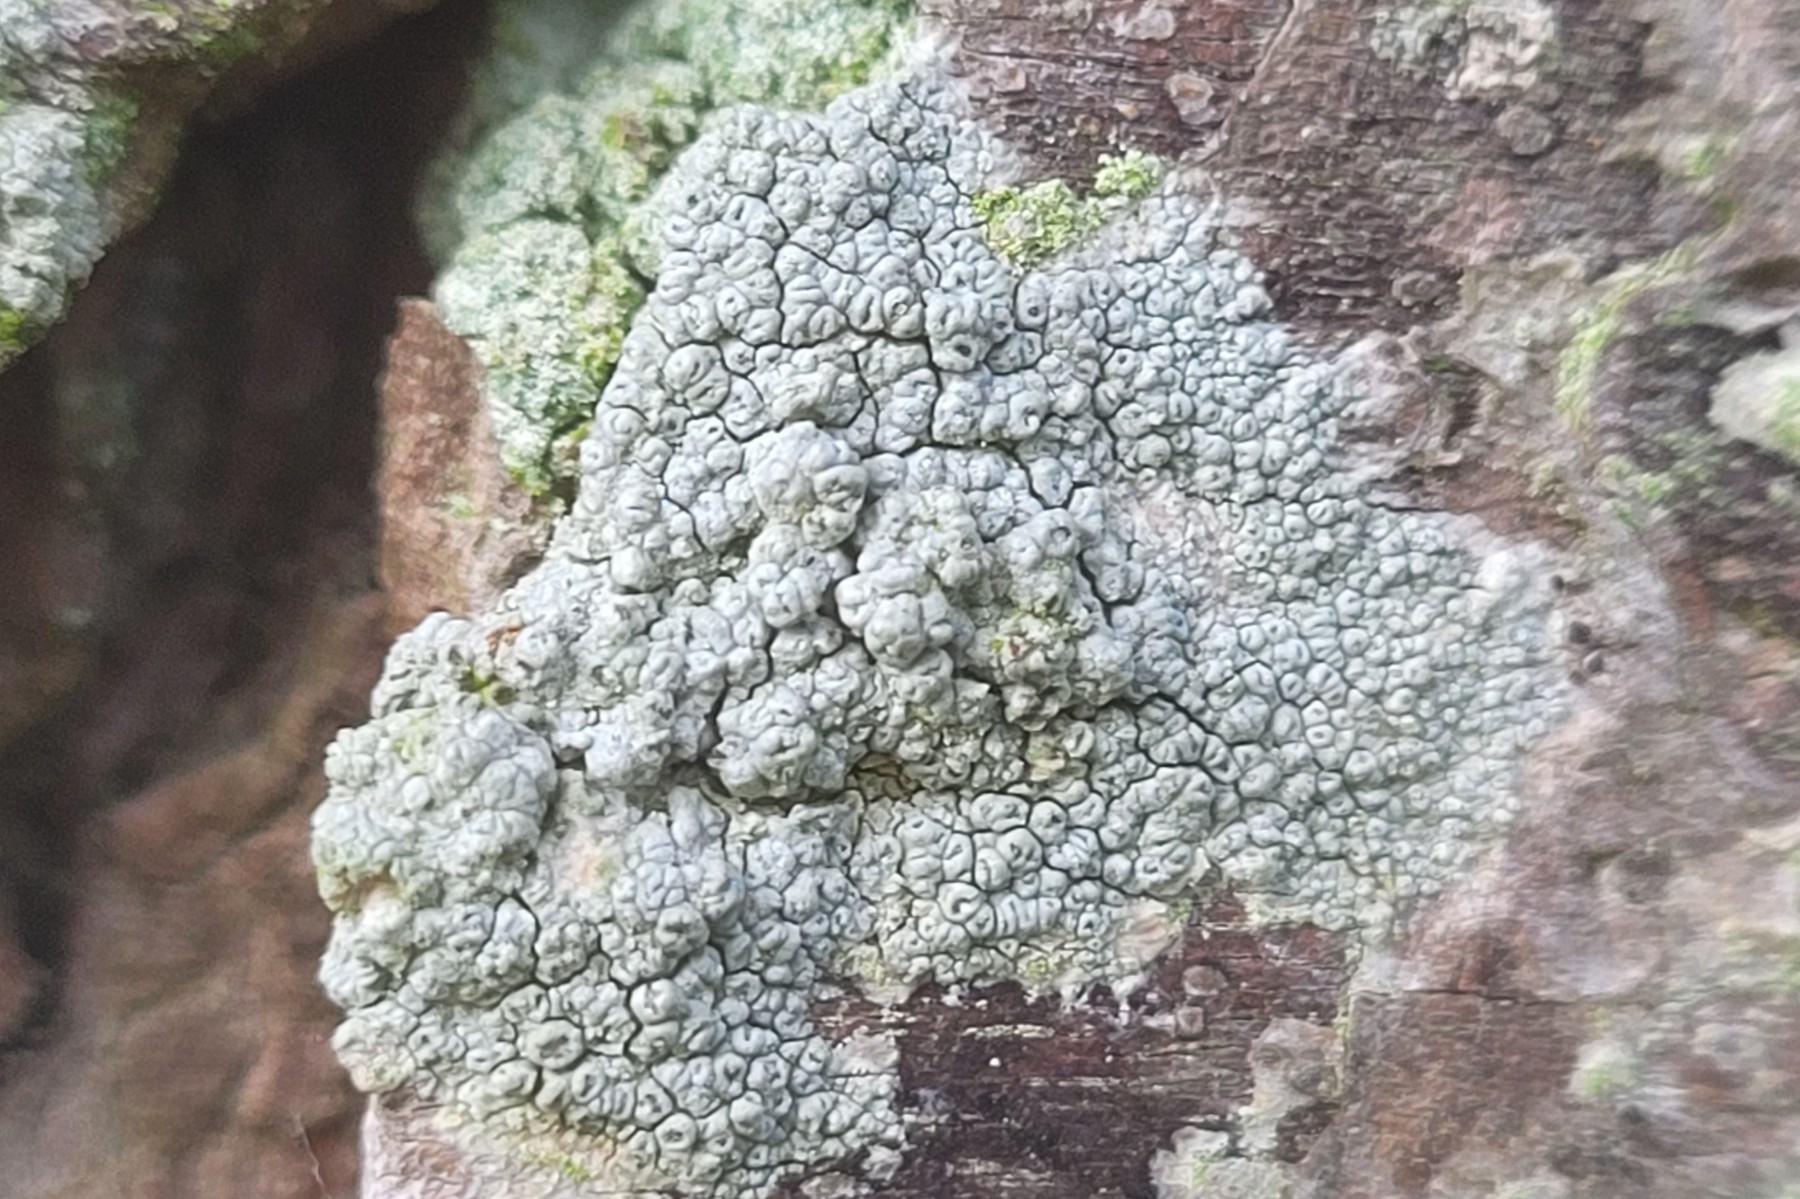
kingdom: Fungi
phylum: Ascomycota
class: Lecanoromycetes
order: Pertusariales
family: Pertusariaceae
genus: Pertusaria
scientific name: Pertusaria hymenea
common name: åben prikvortelav
